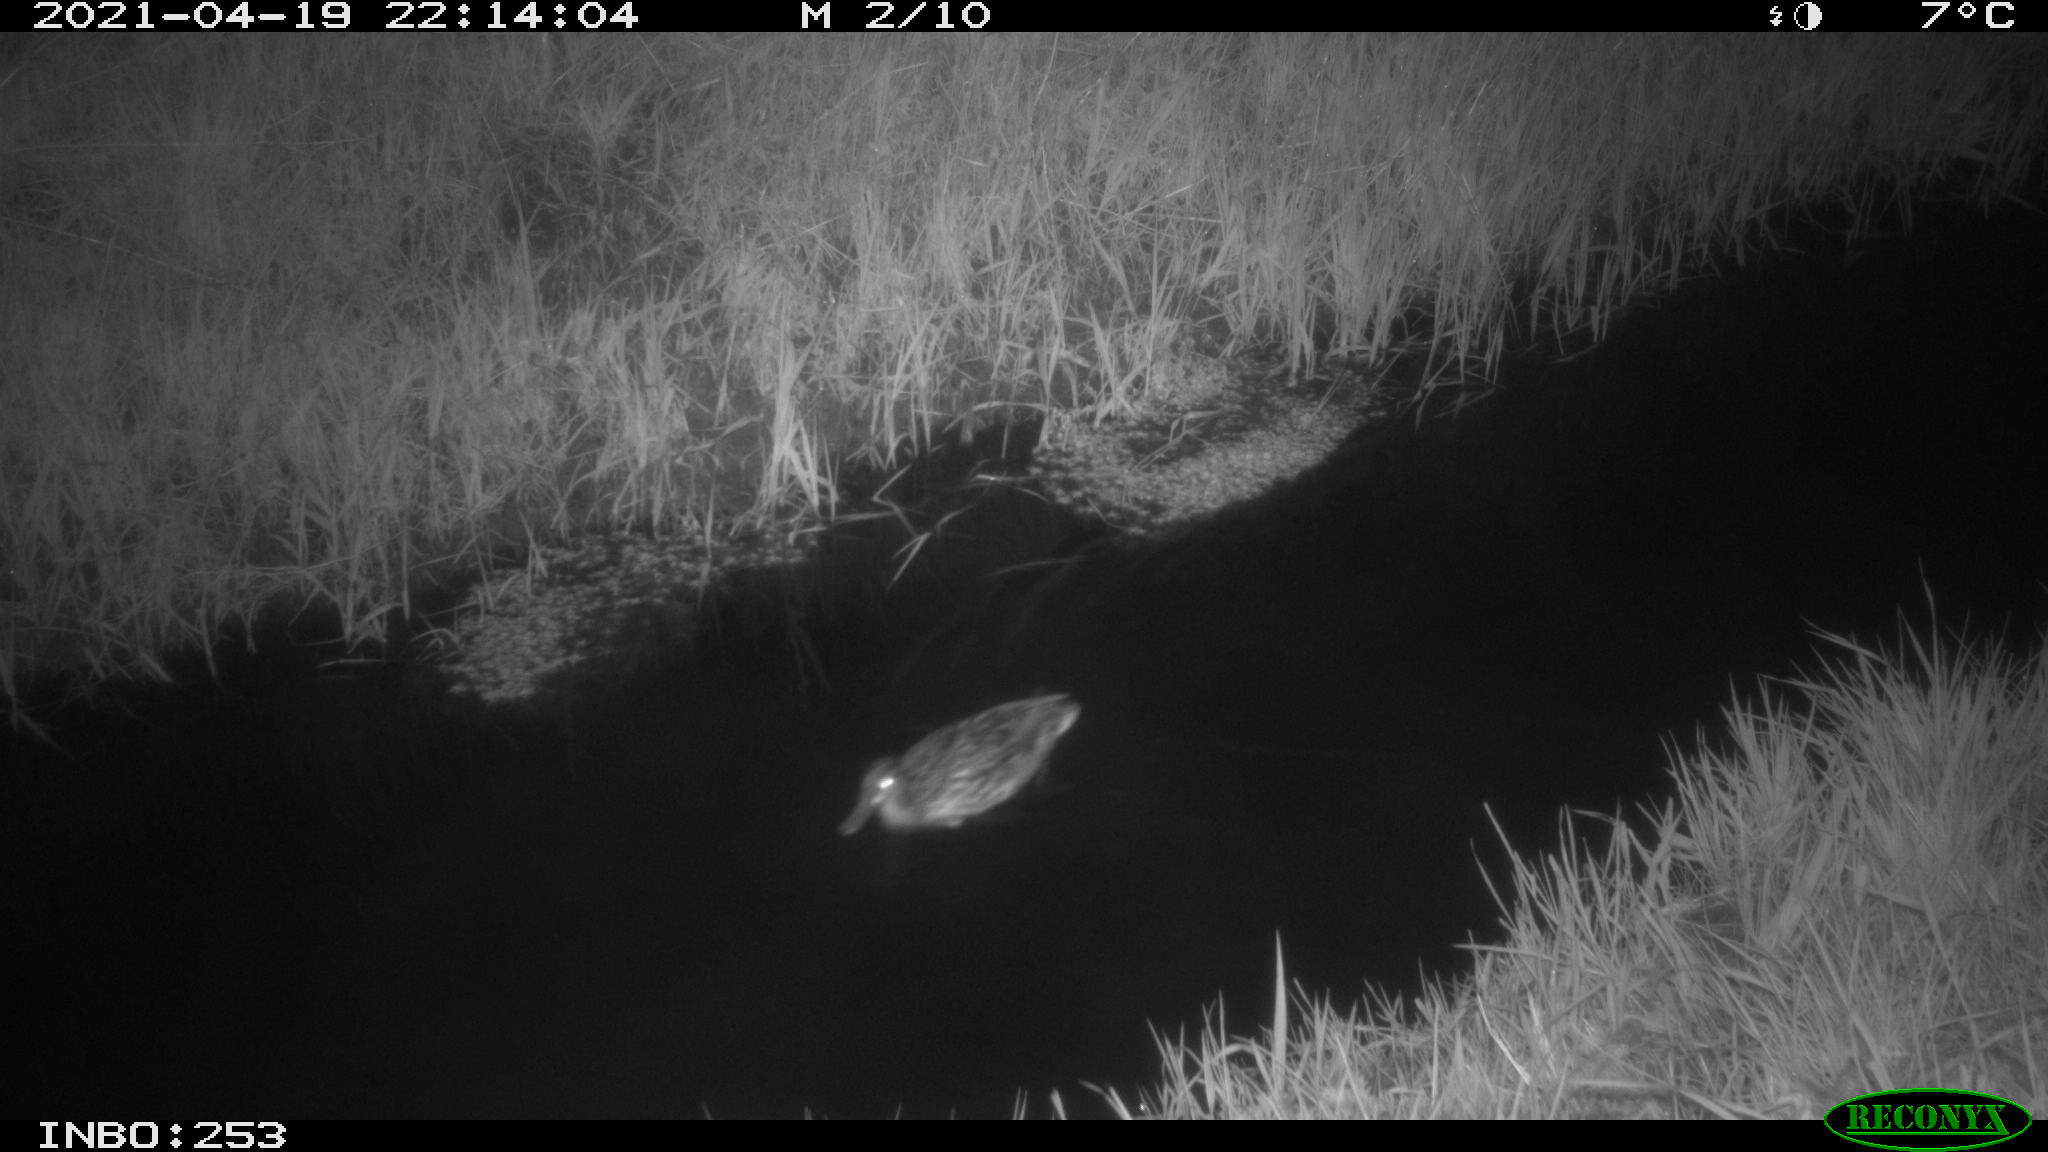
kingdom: Animalia
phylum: Chordata
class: Aves
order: Anseriformes
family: Anatidae
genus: Anas
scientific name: Anas platyrhynchos
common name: Mallard
